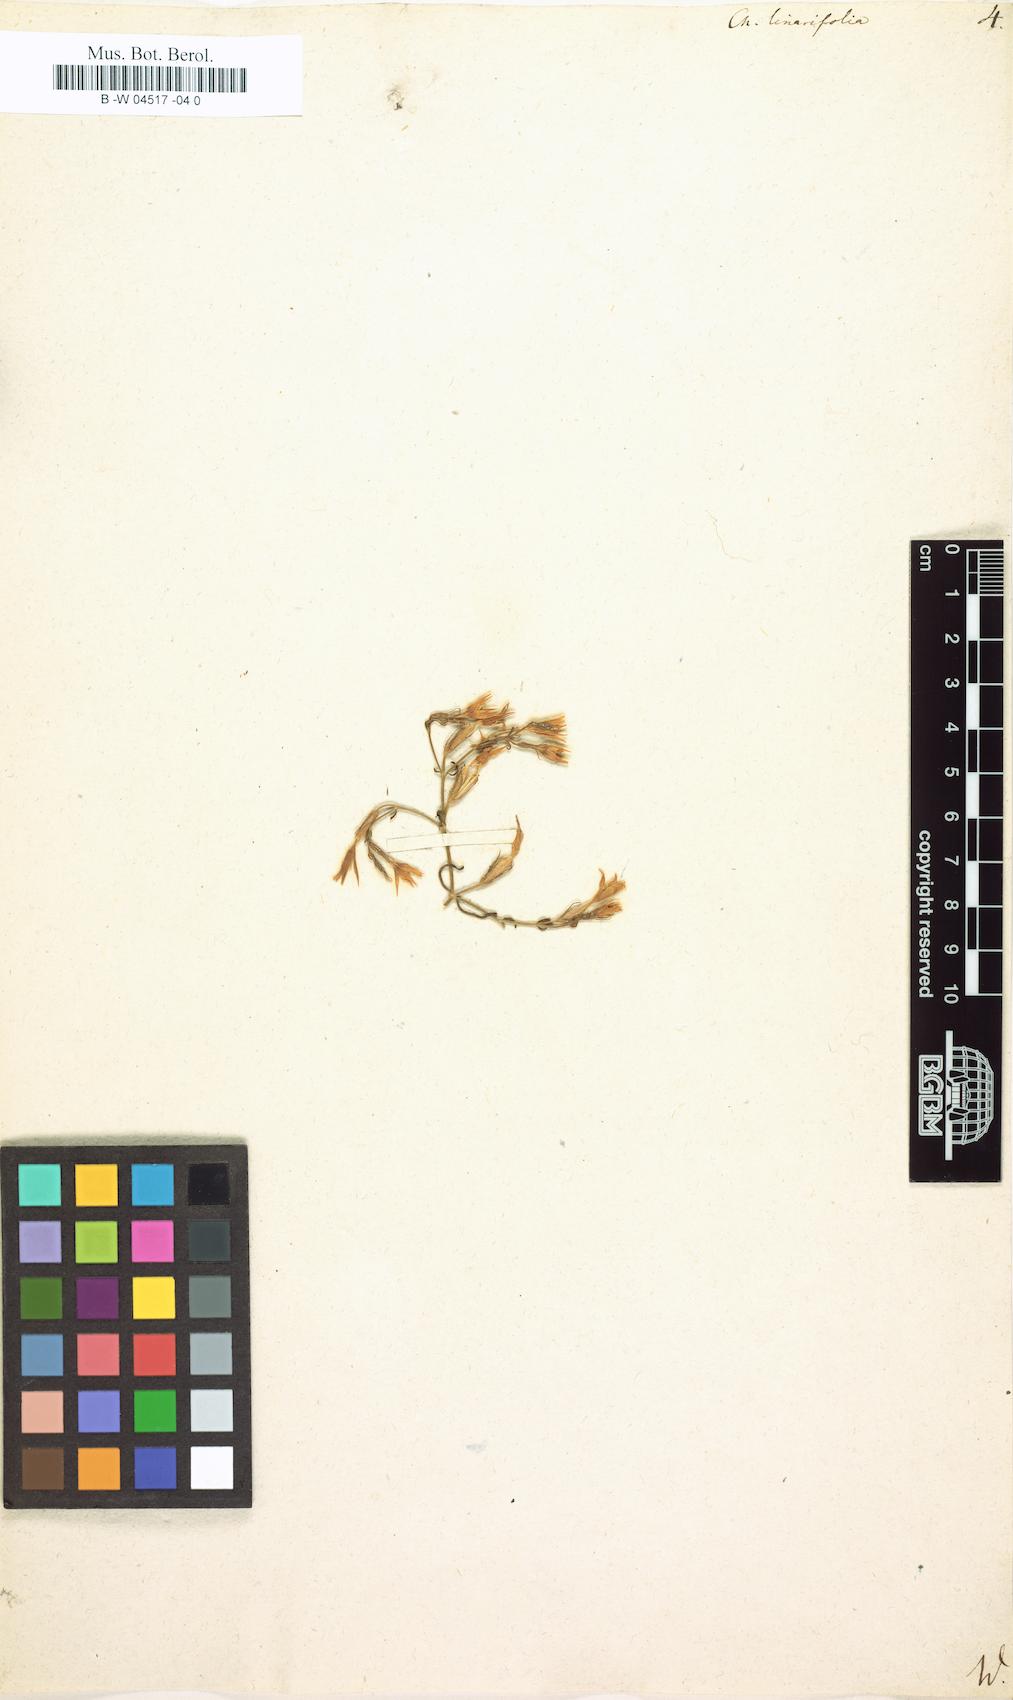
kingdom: Plantae
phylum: Tracheophyta
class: Magnoliopsida
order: Gentianales
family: Gentianaceae
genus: Centaurium
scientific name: Centaurium quadrifolium
